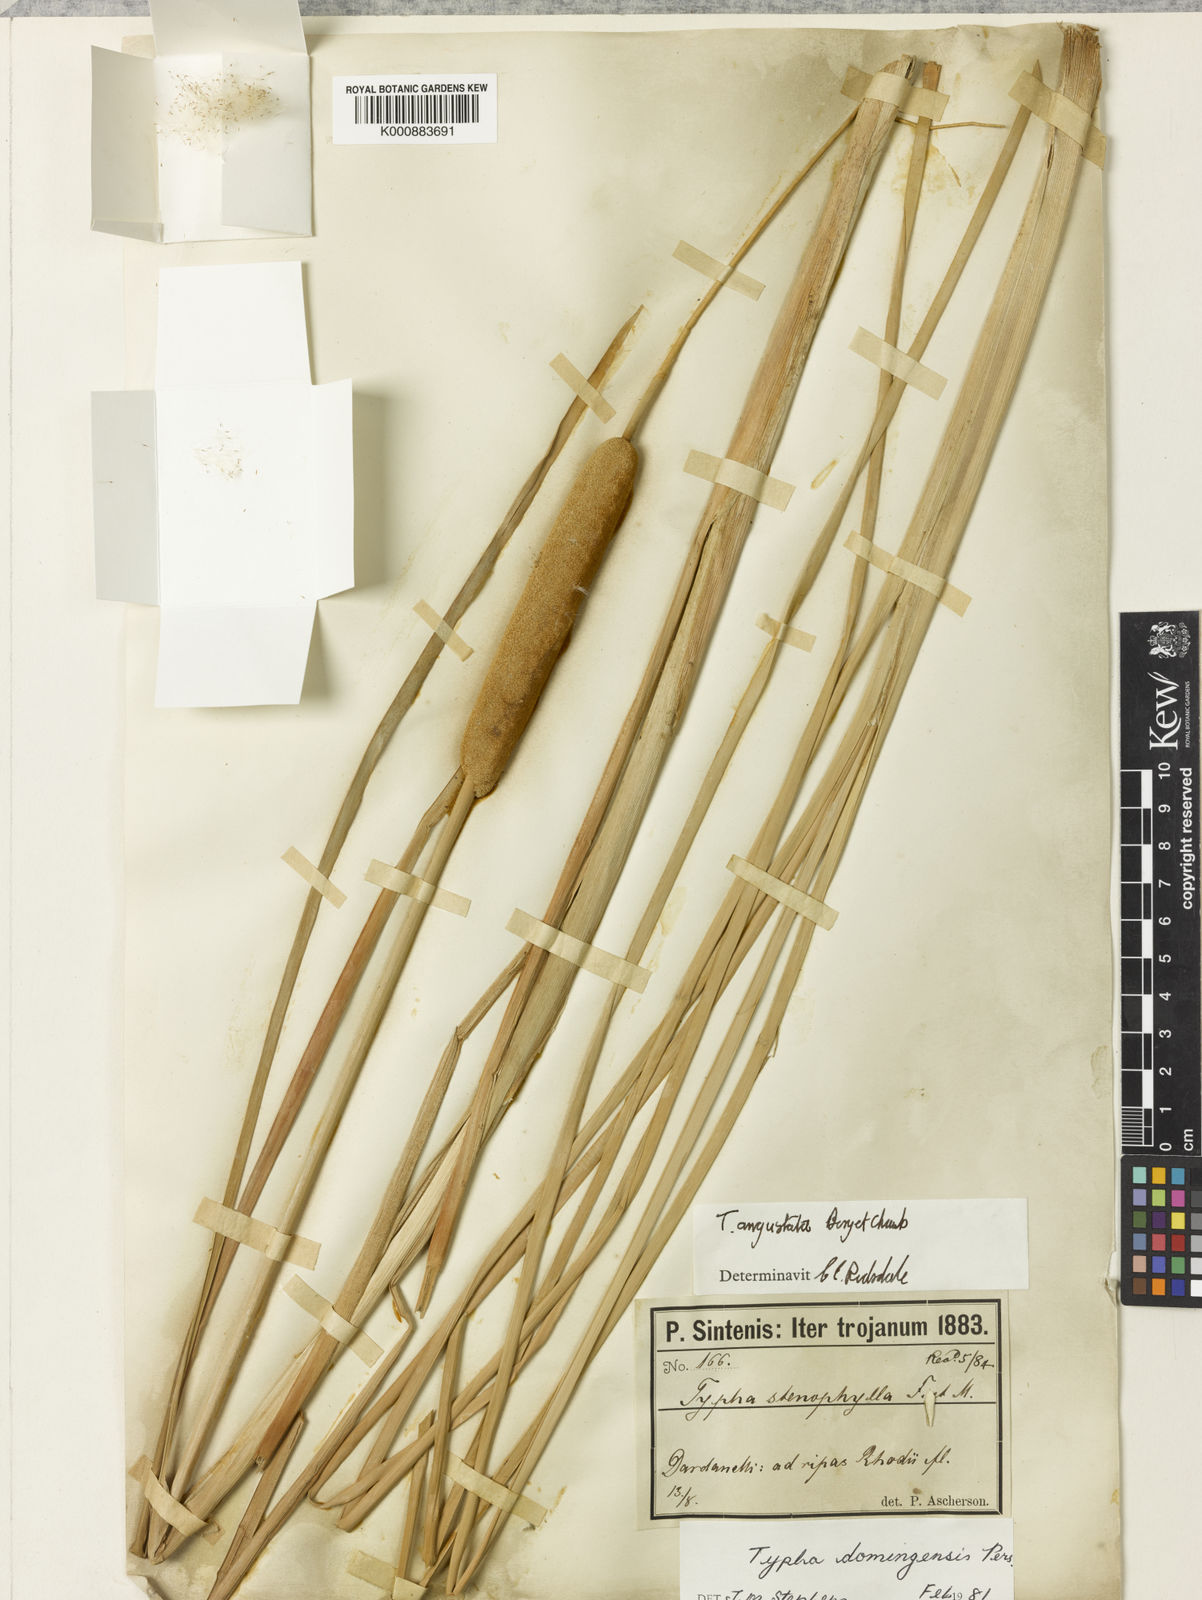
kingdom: Plantae
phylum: Tracheophyta
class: Liliopsida
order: Poales
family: Typhaceae
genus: Typha
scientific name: Typha domingensis
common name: Southern cattail
